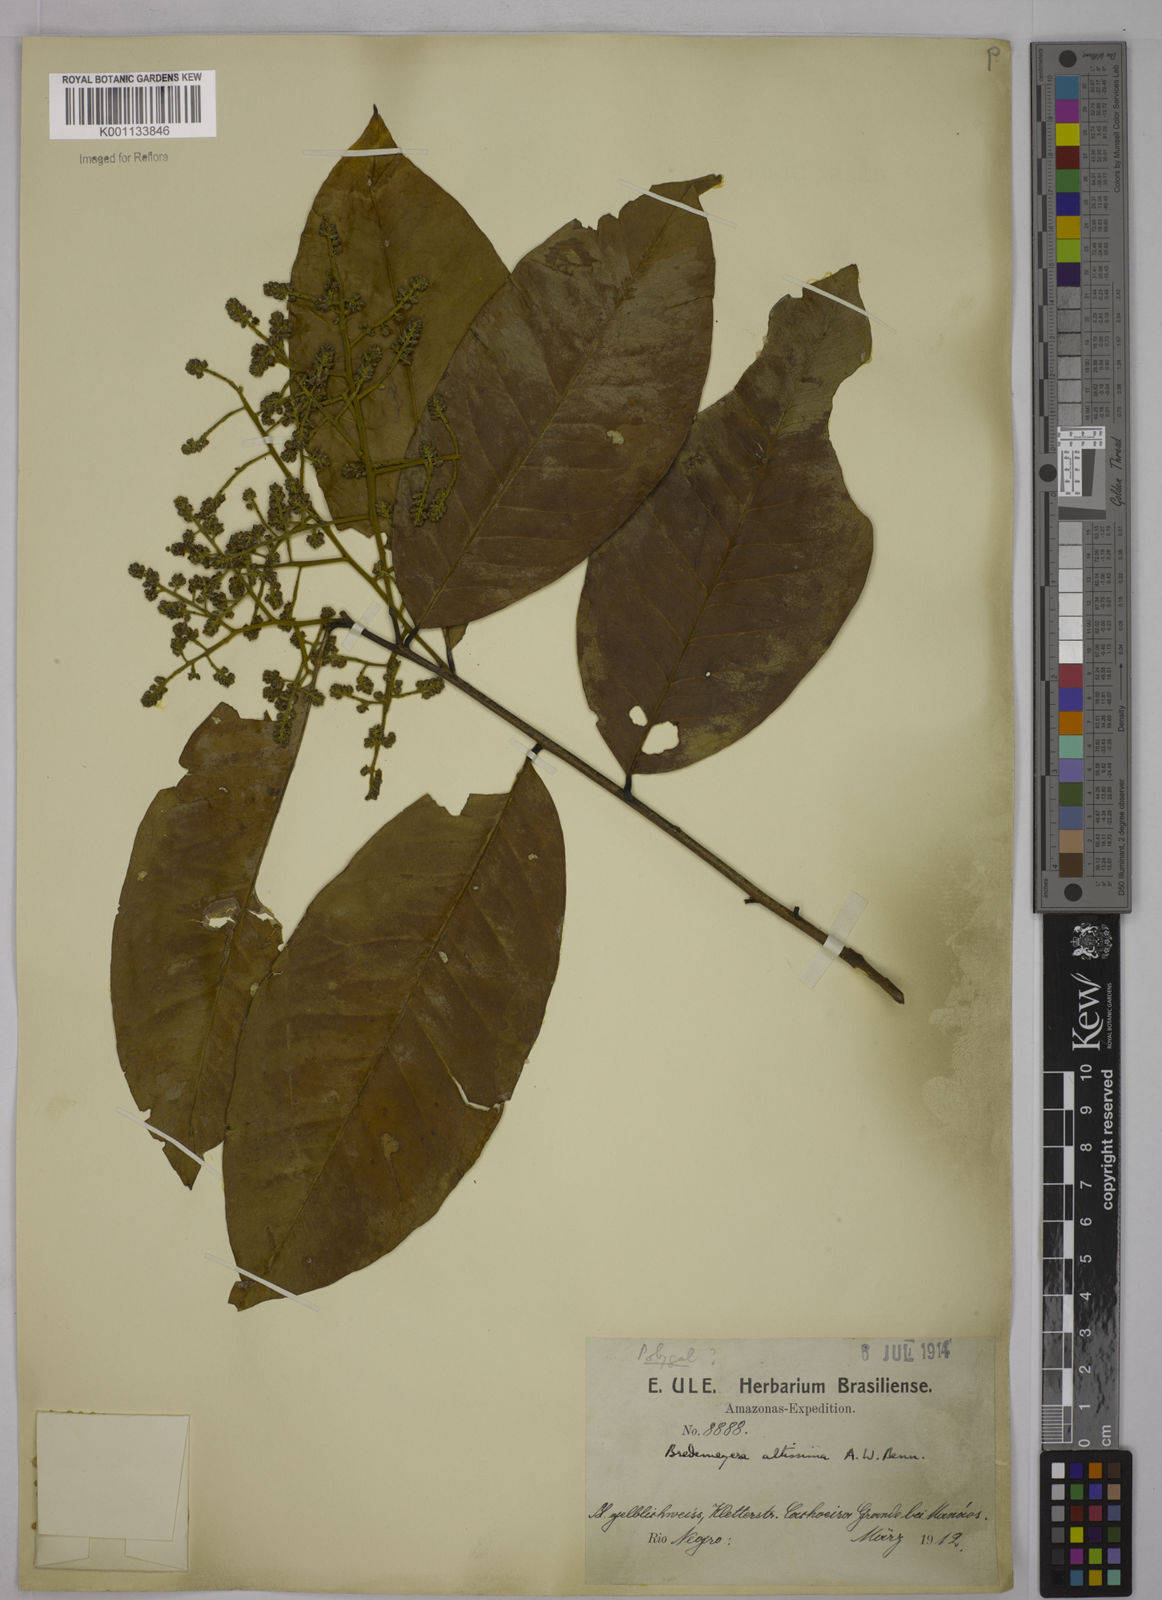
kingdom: Plantae
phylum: Tracheophyta
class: Magnoliopsida
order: Fabales
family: Polygalaceae
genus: Bredemeyera
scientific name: Bredemeyera divaricata
